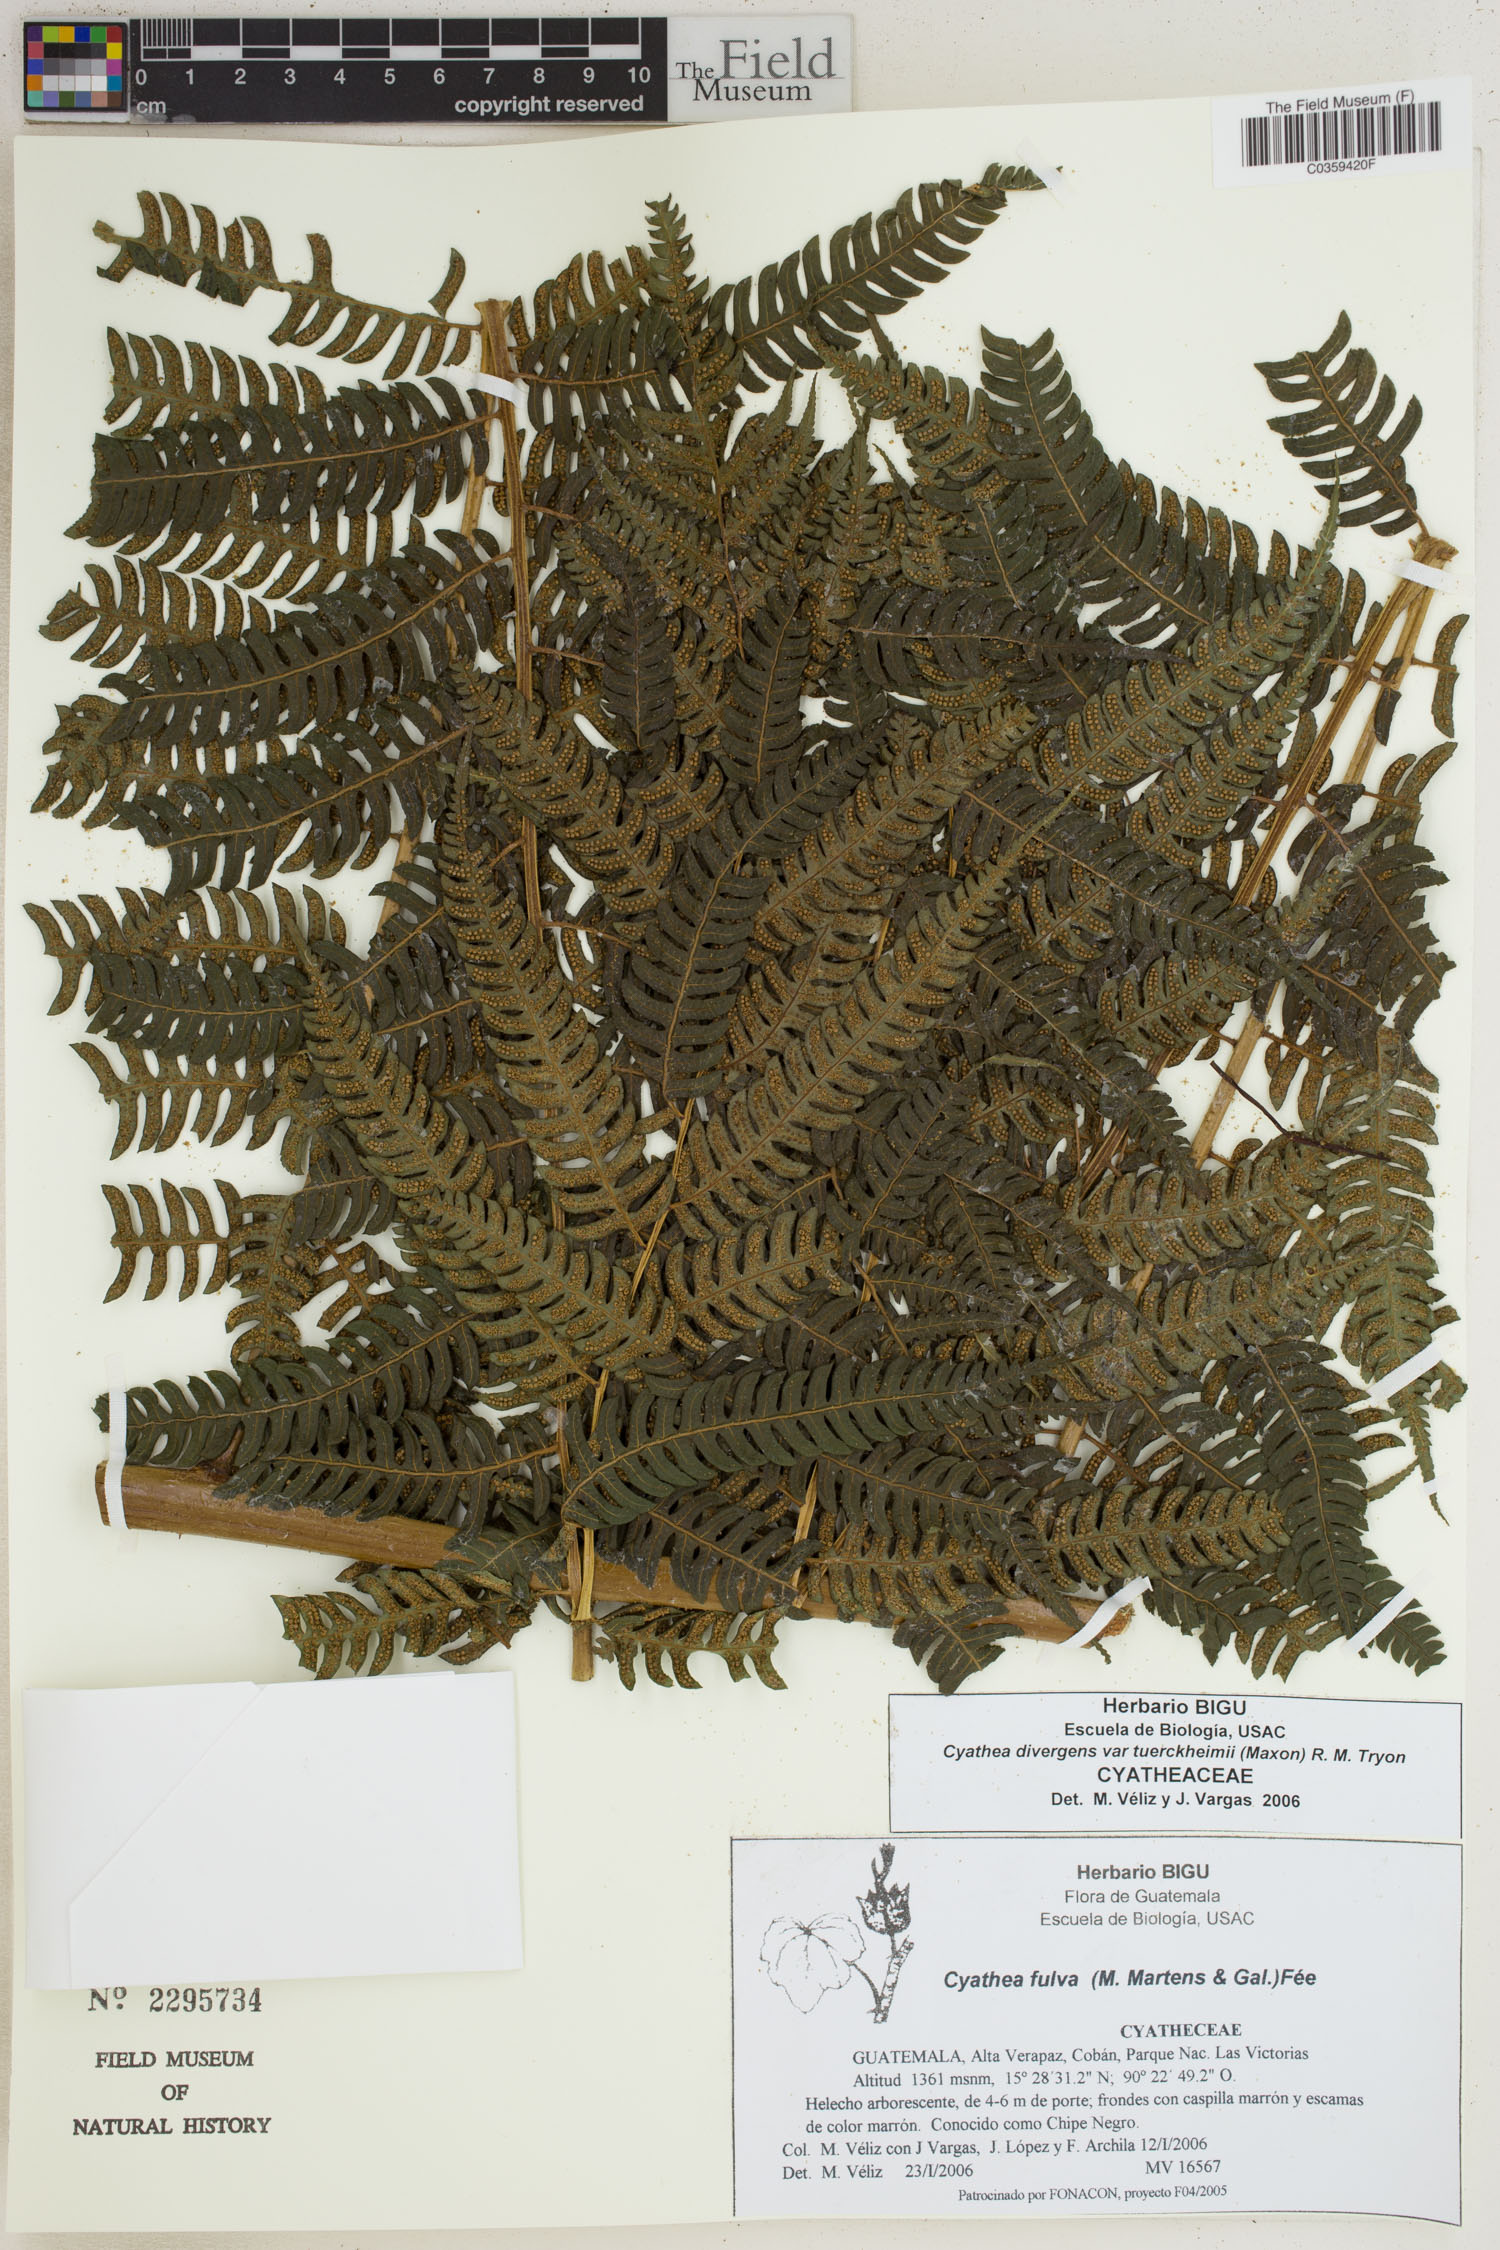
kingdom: Plantae
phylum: Tracheophyta
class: Polypodiopsida
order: Cyatheales
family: Cyatheaceae
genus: Cyathea
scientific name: Cyathea tuerckheimii
